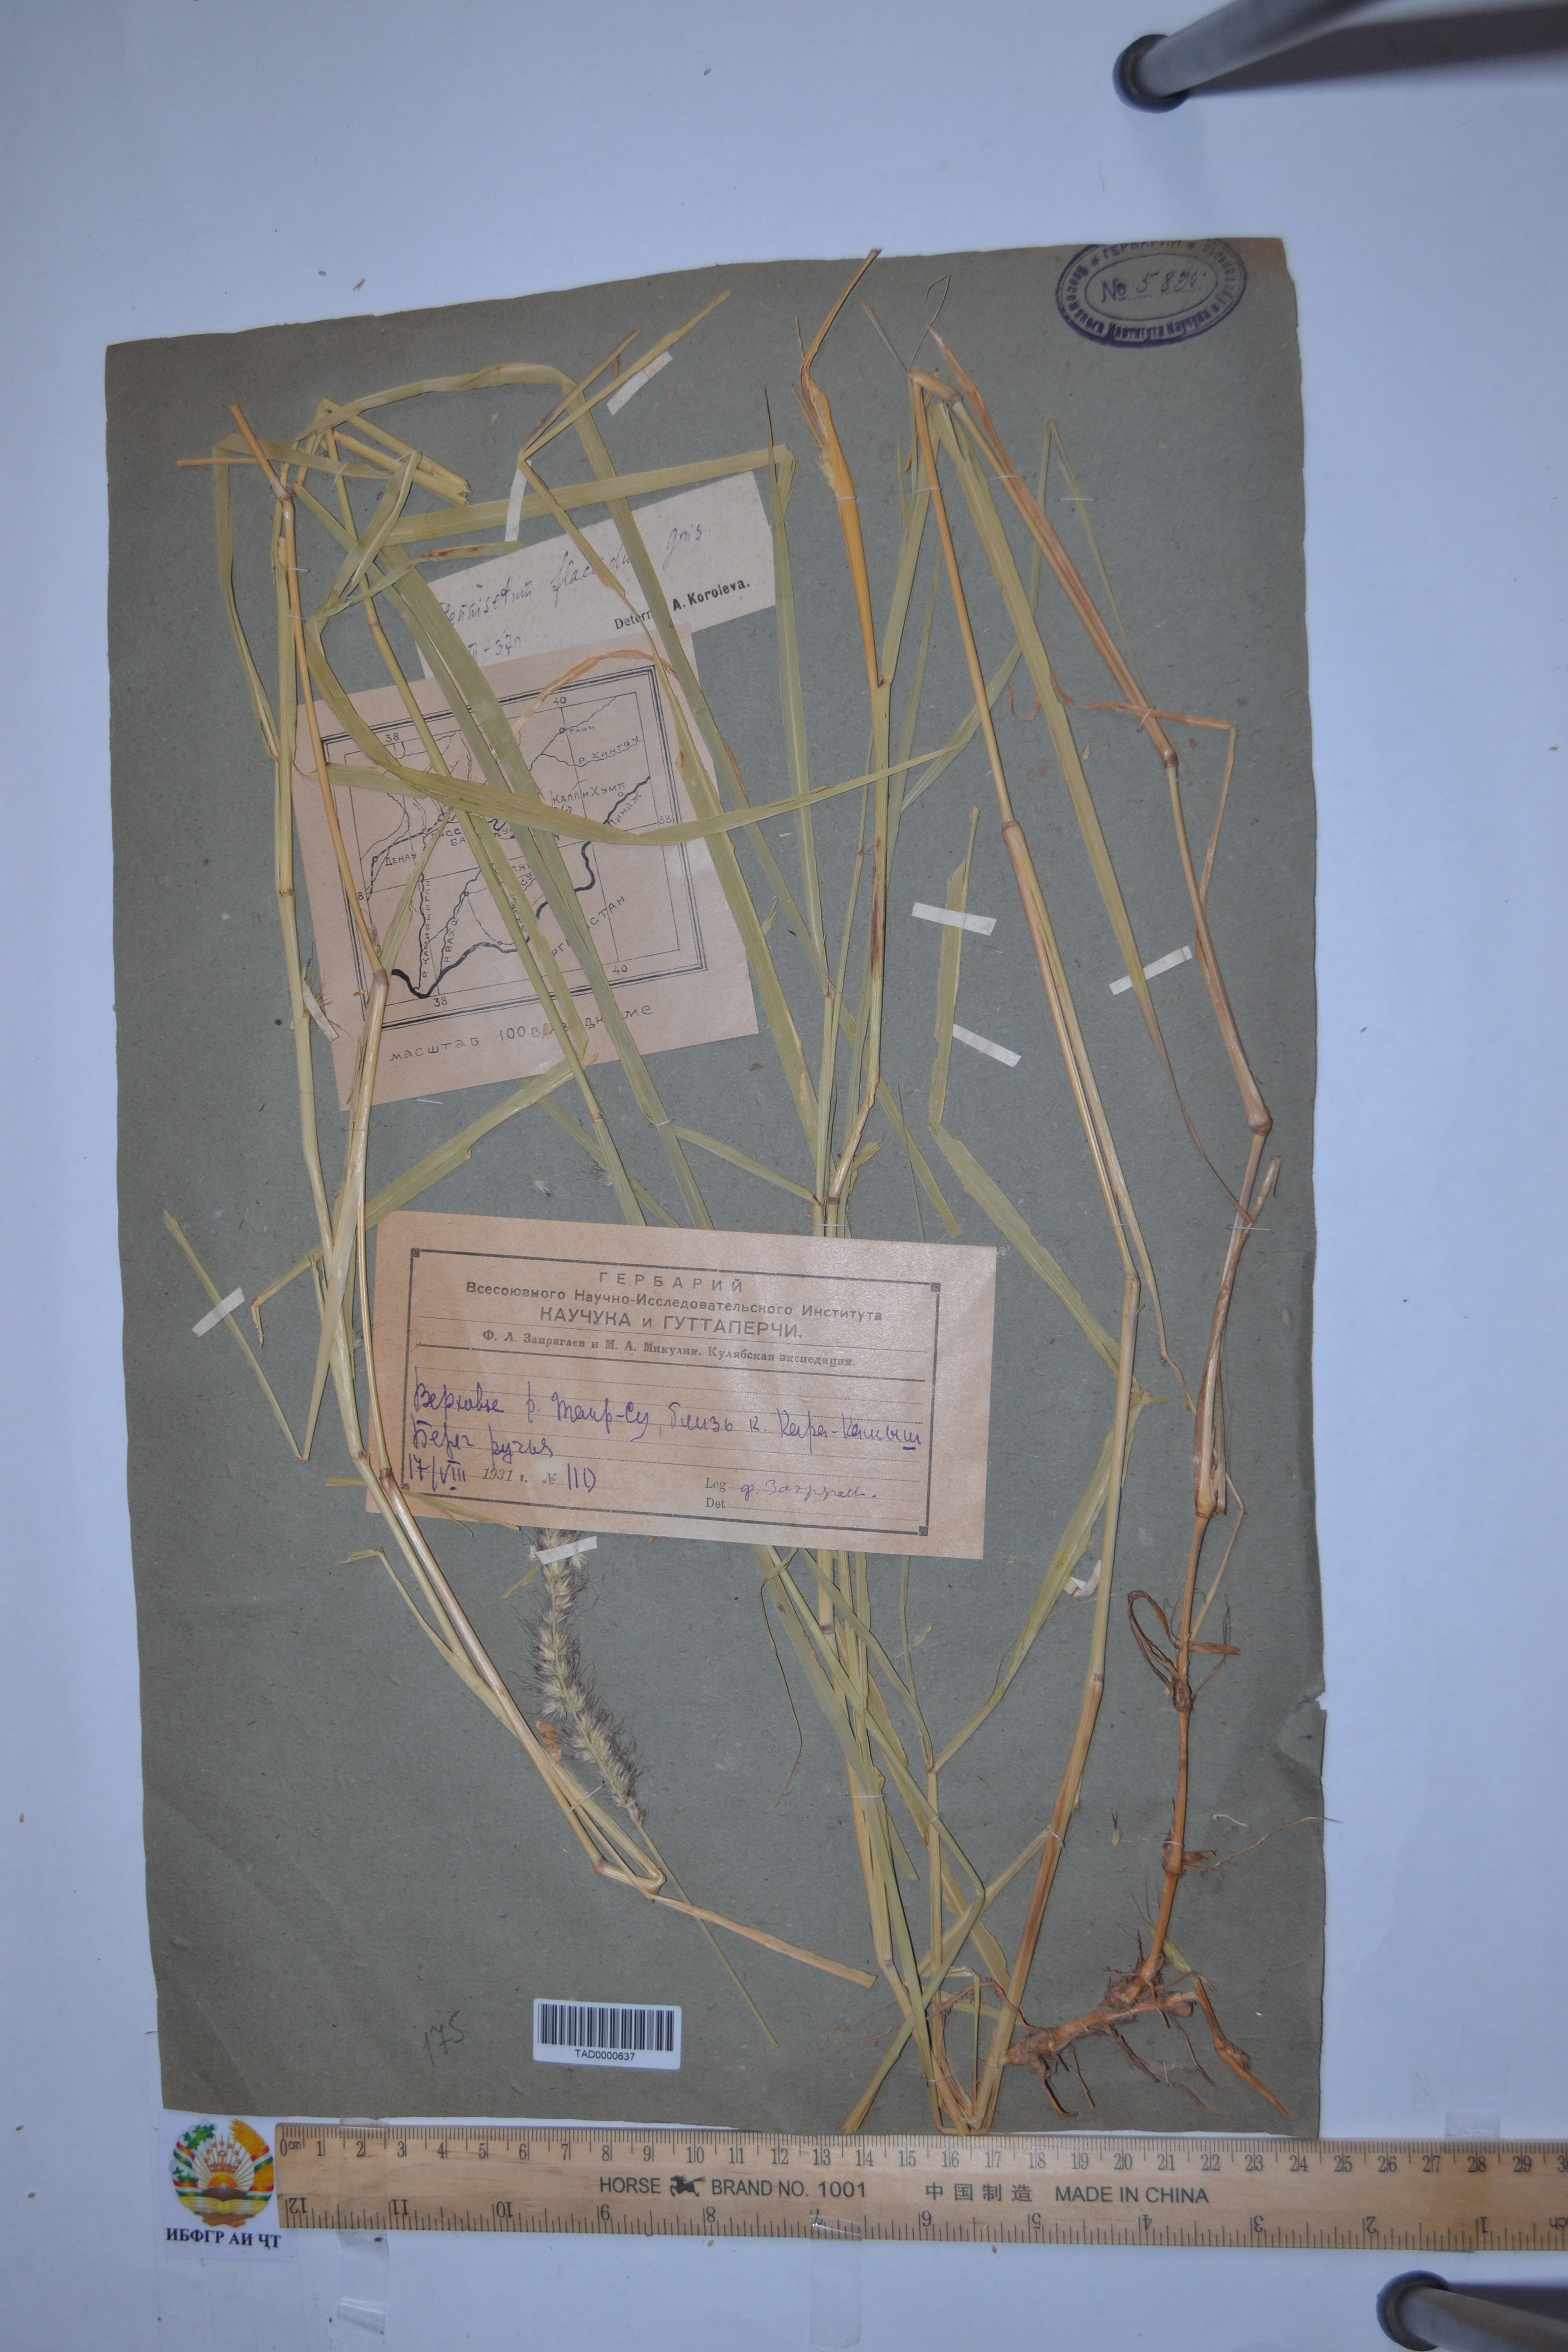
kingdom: Plantae
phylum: Tracheophyta
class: Liliopsida
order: Poales
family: Poaceae
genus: Cenchrus
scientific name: Cenchrus flaccidus
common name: Flaccid grass
